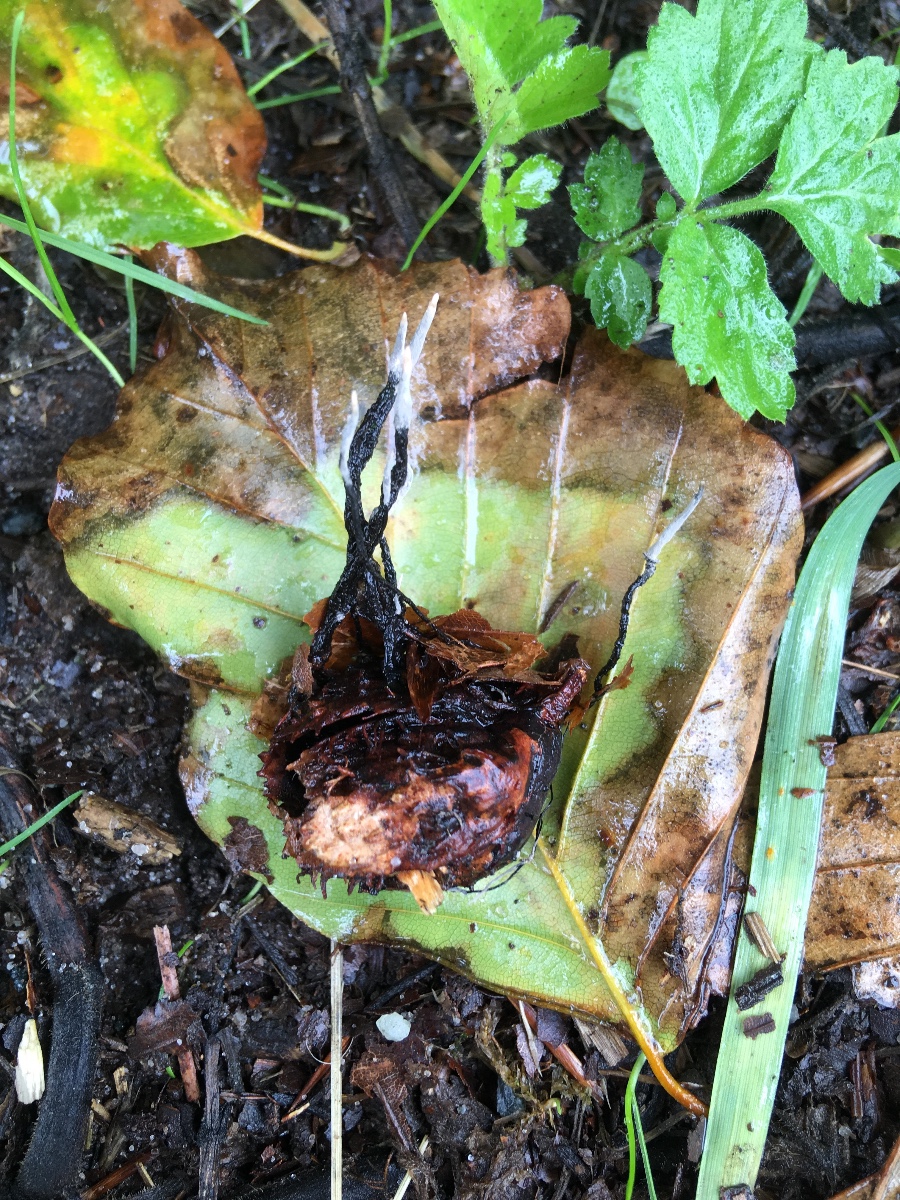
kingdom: Fungi
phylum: Ascomycota
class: Sordariomycetes
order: Xylariales
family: Xylariaceae
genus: Xylaria
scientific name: Xylaria carpophila
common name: bogskål-stødsvamp
